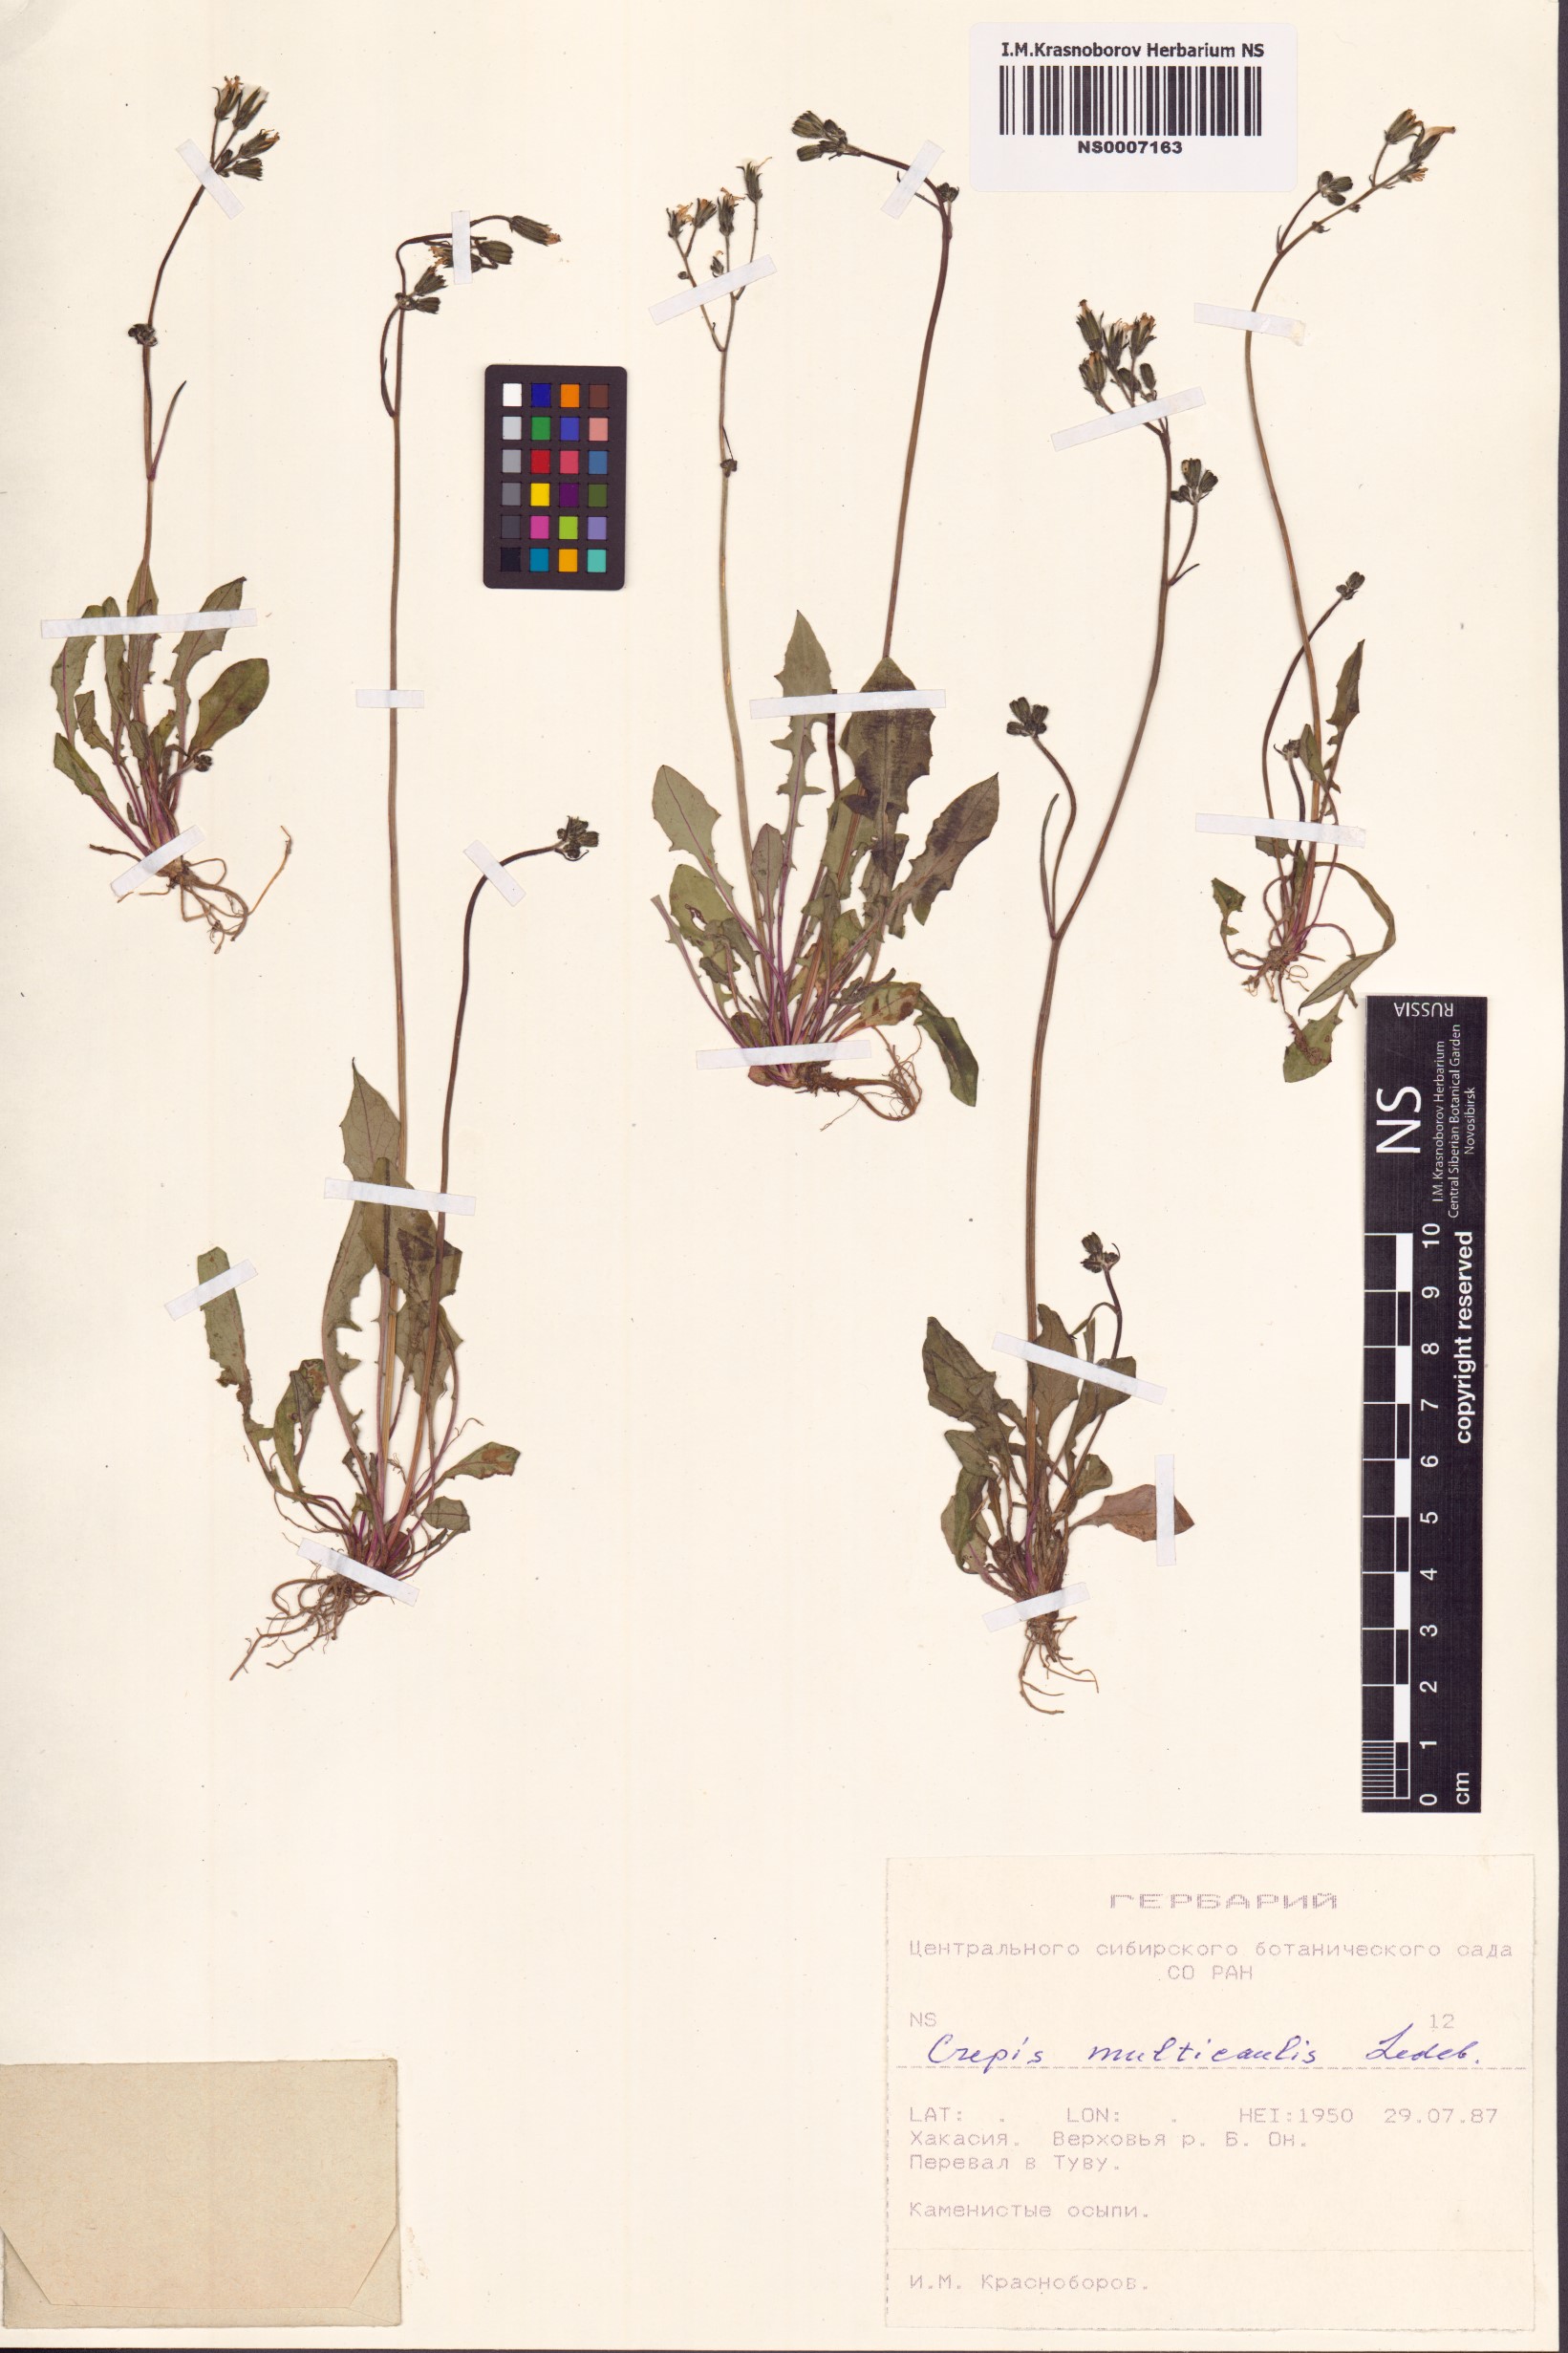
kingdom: Plantae
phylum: Tracheophyta
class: Magnoliopsida
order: Asterales
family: Asteraceae
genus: Crepis
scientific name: Crepis multicaulis
